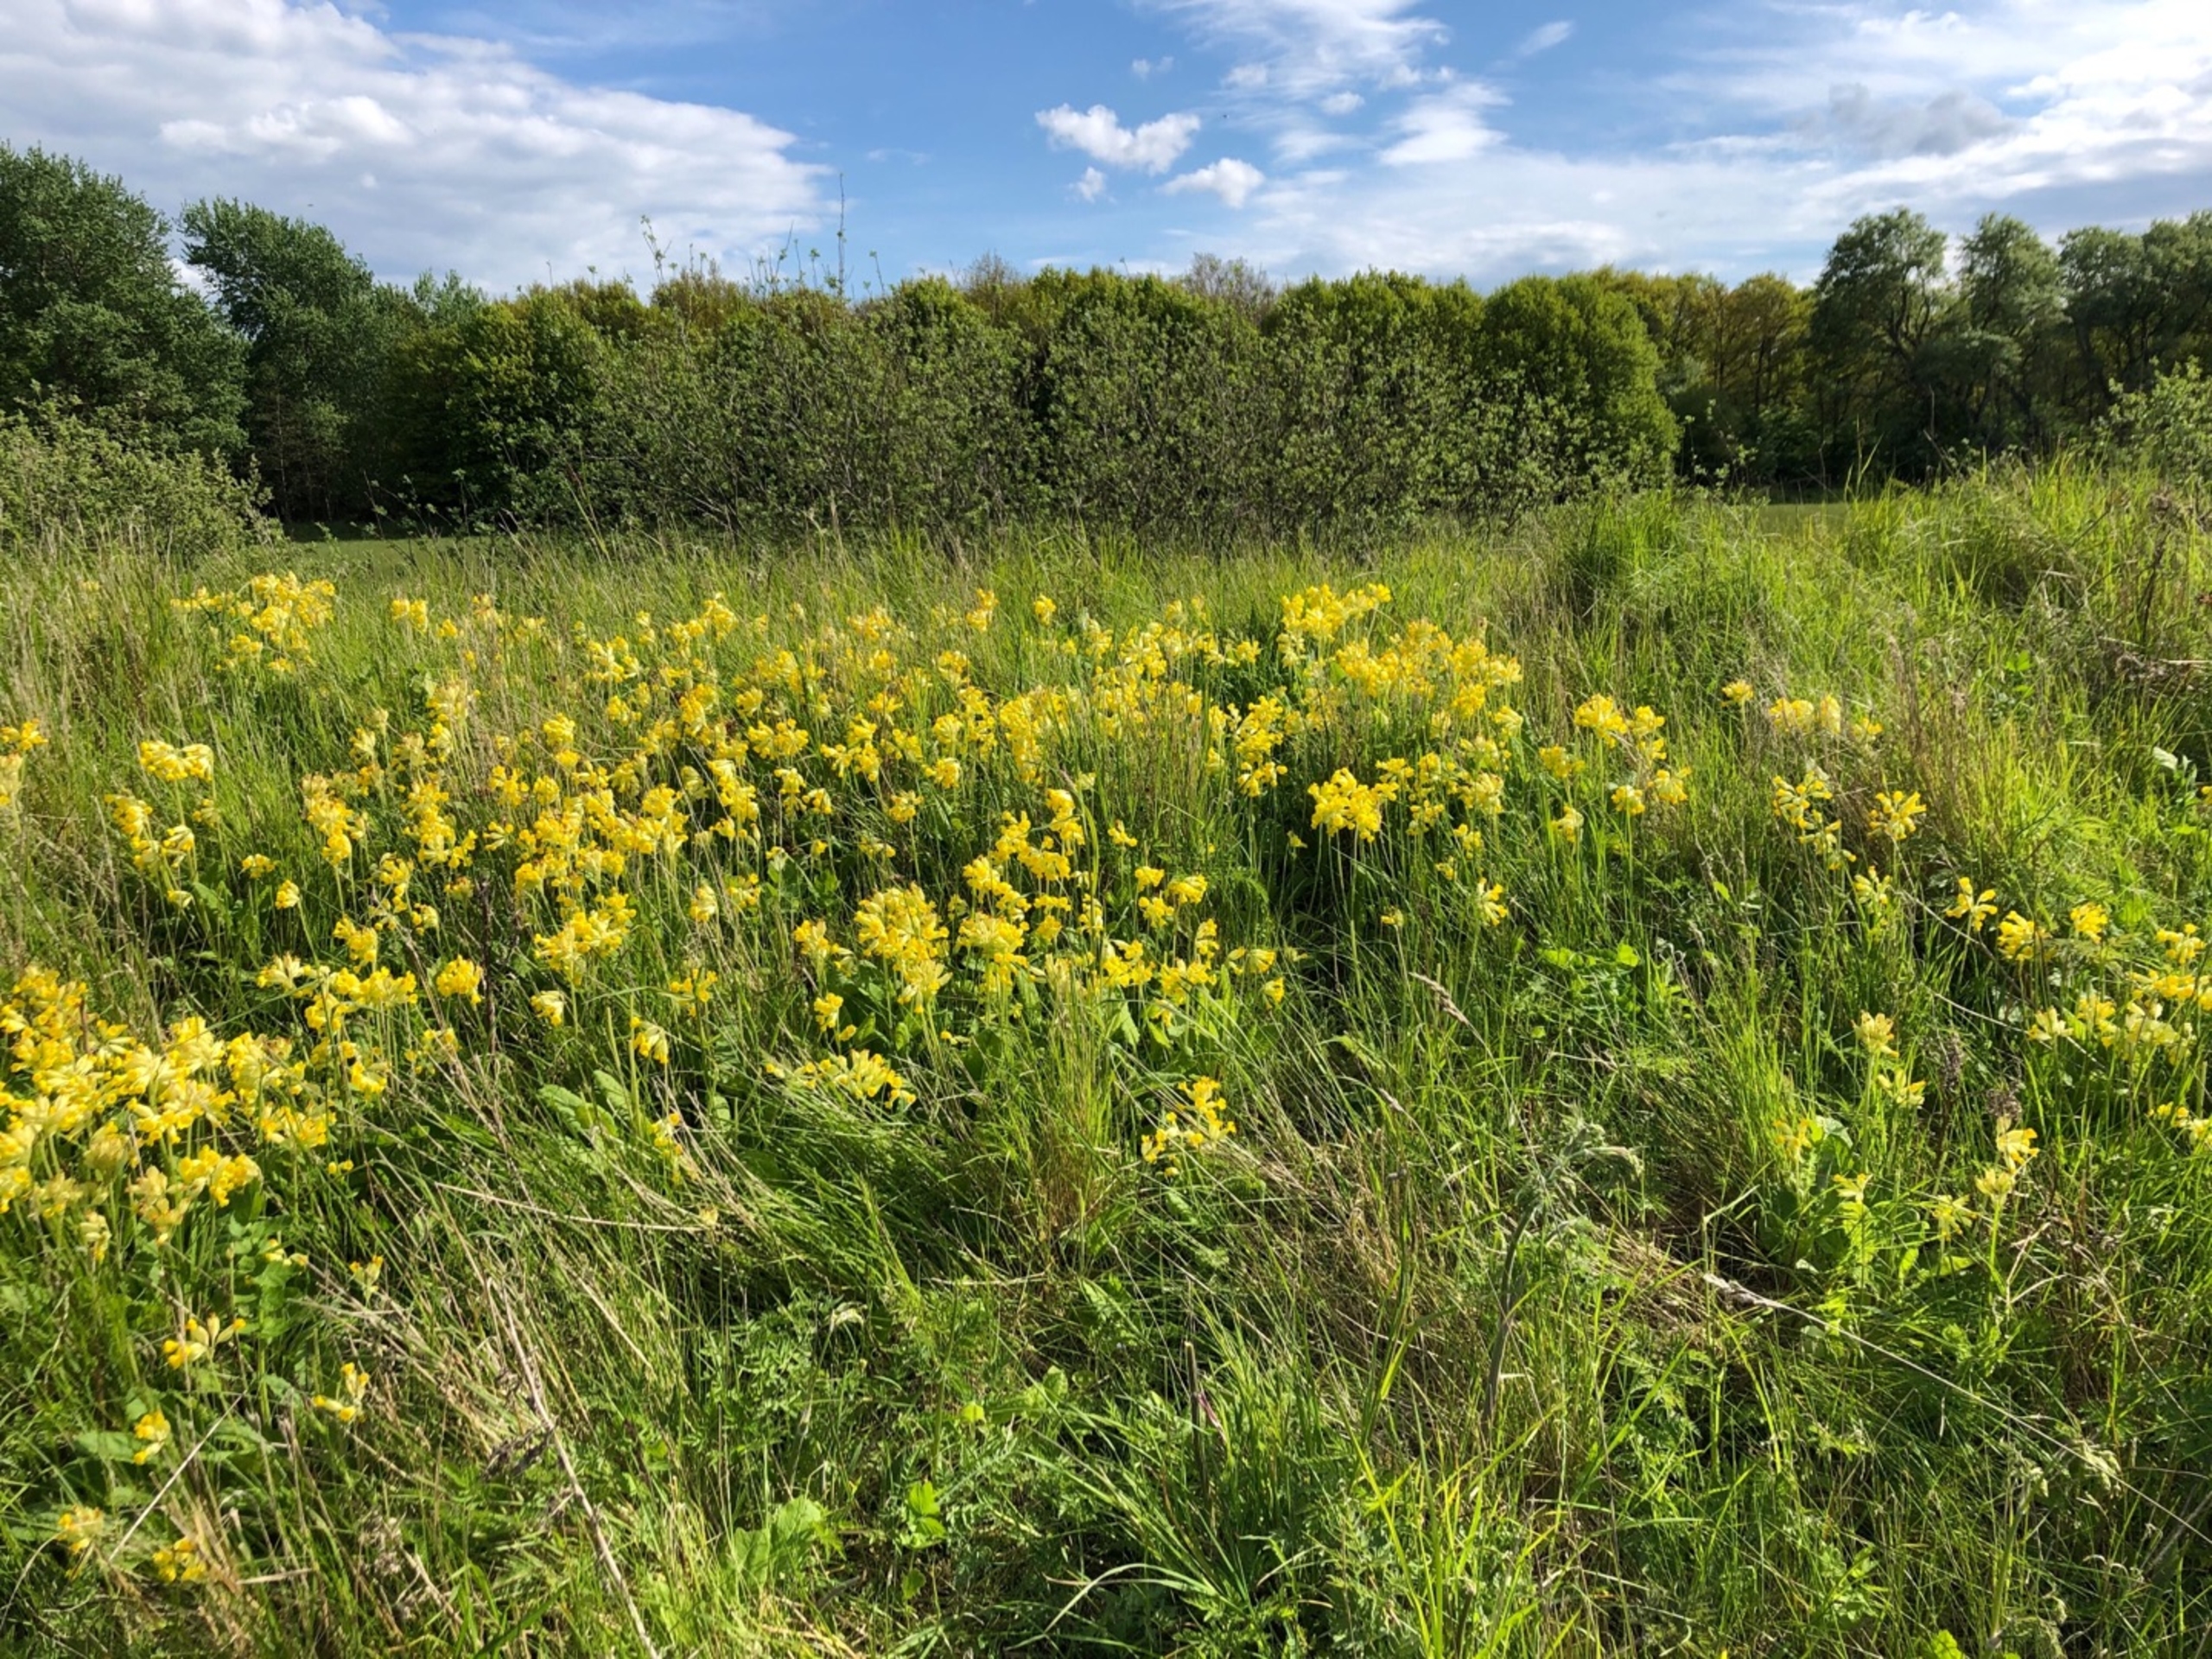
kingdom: Plantae
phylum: Tracheophyta
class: Magnoliopsida
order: Ericales
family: Primulaceae
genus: Primula
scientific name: Primula veris
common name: Hulkravet kodriver
